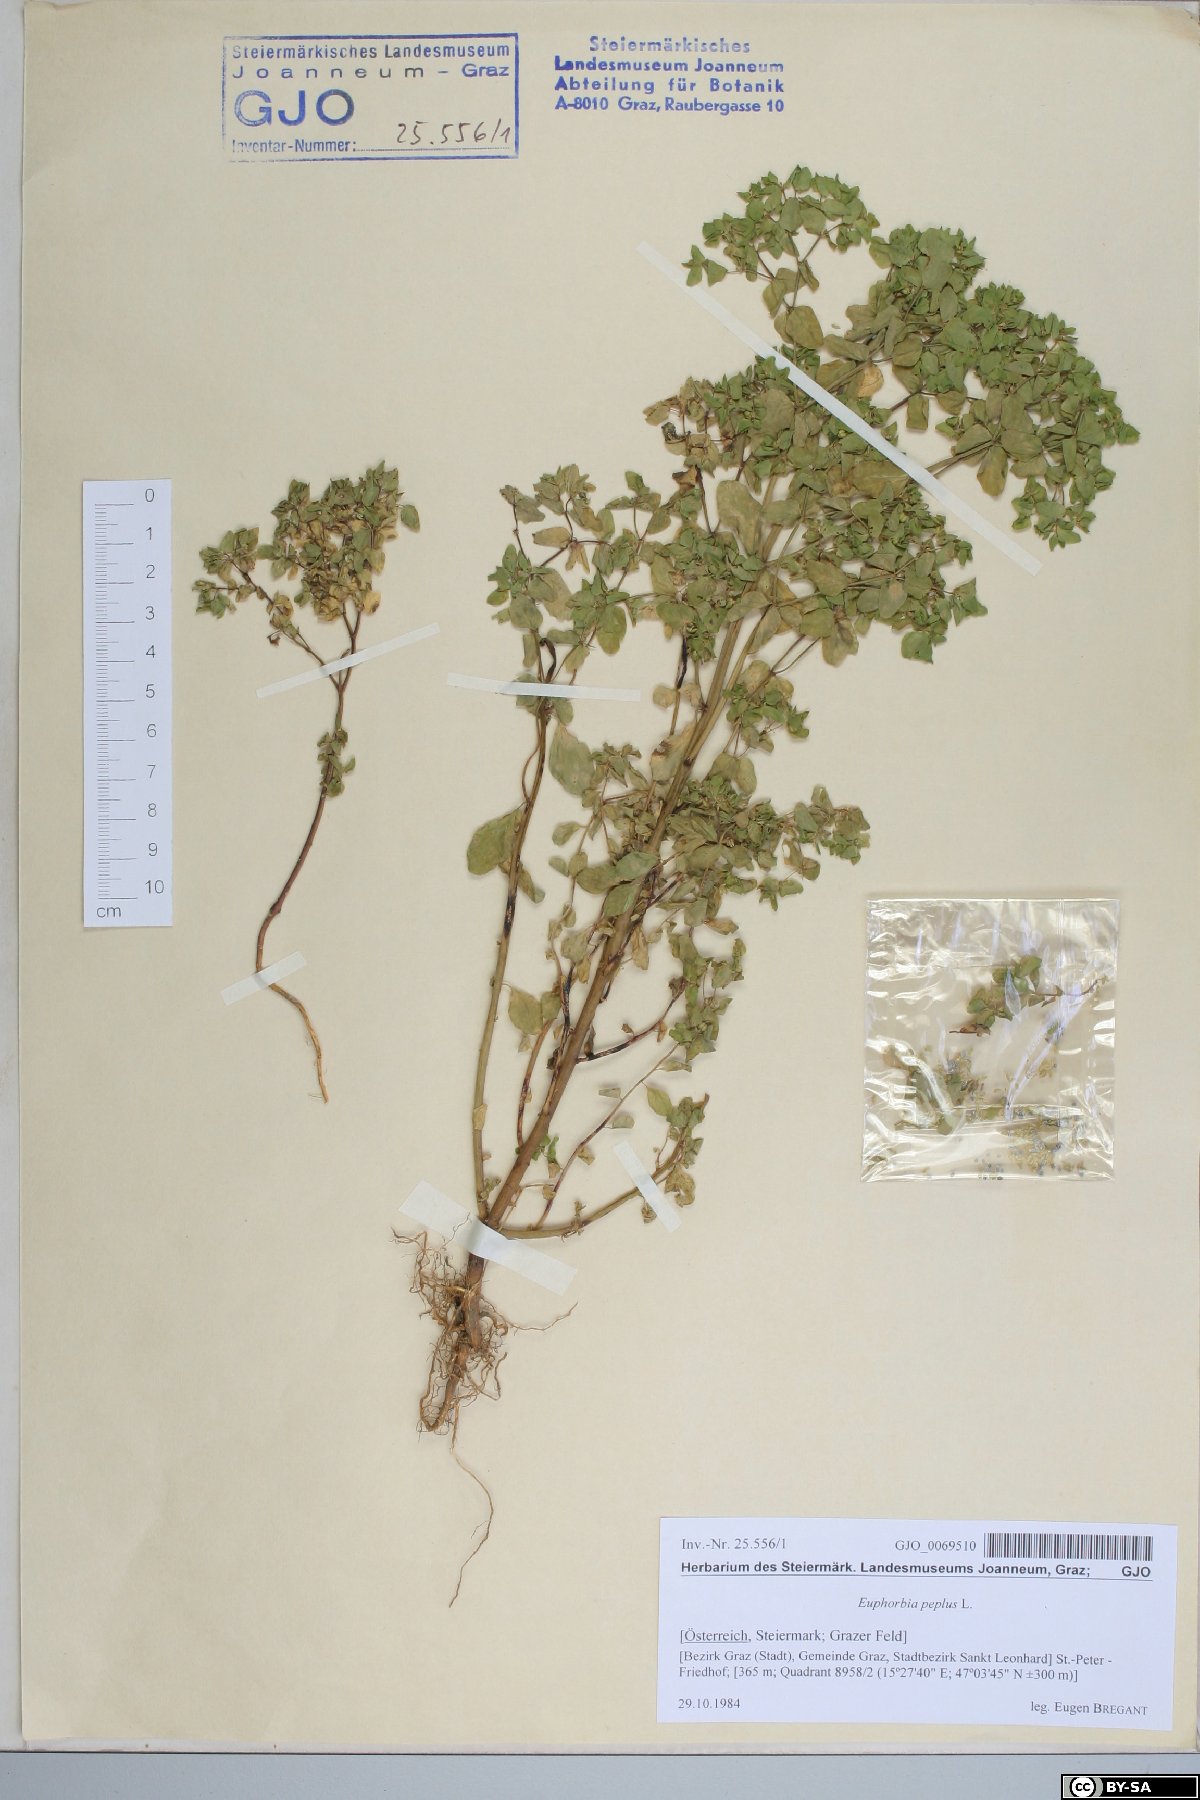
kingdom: Plantae
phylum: Tracheophyta
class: Magnoliopsida
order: Malpighiales
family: Euphorbiaceae
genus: Euphorbia
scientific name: Euphorbia peplus
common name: Petty spurge
